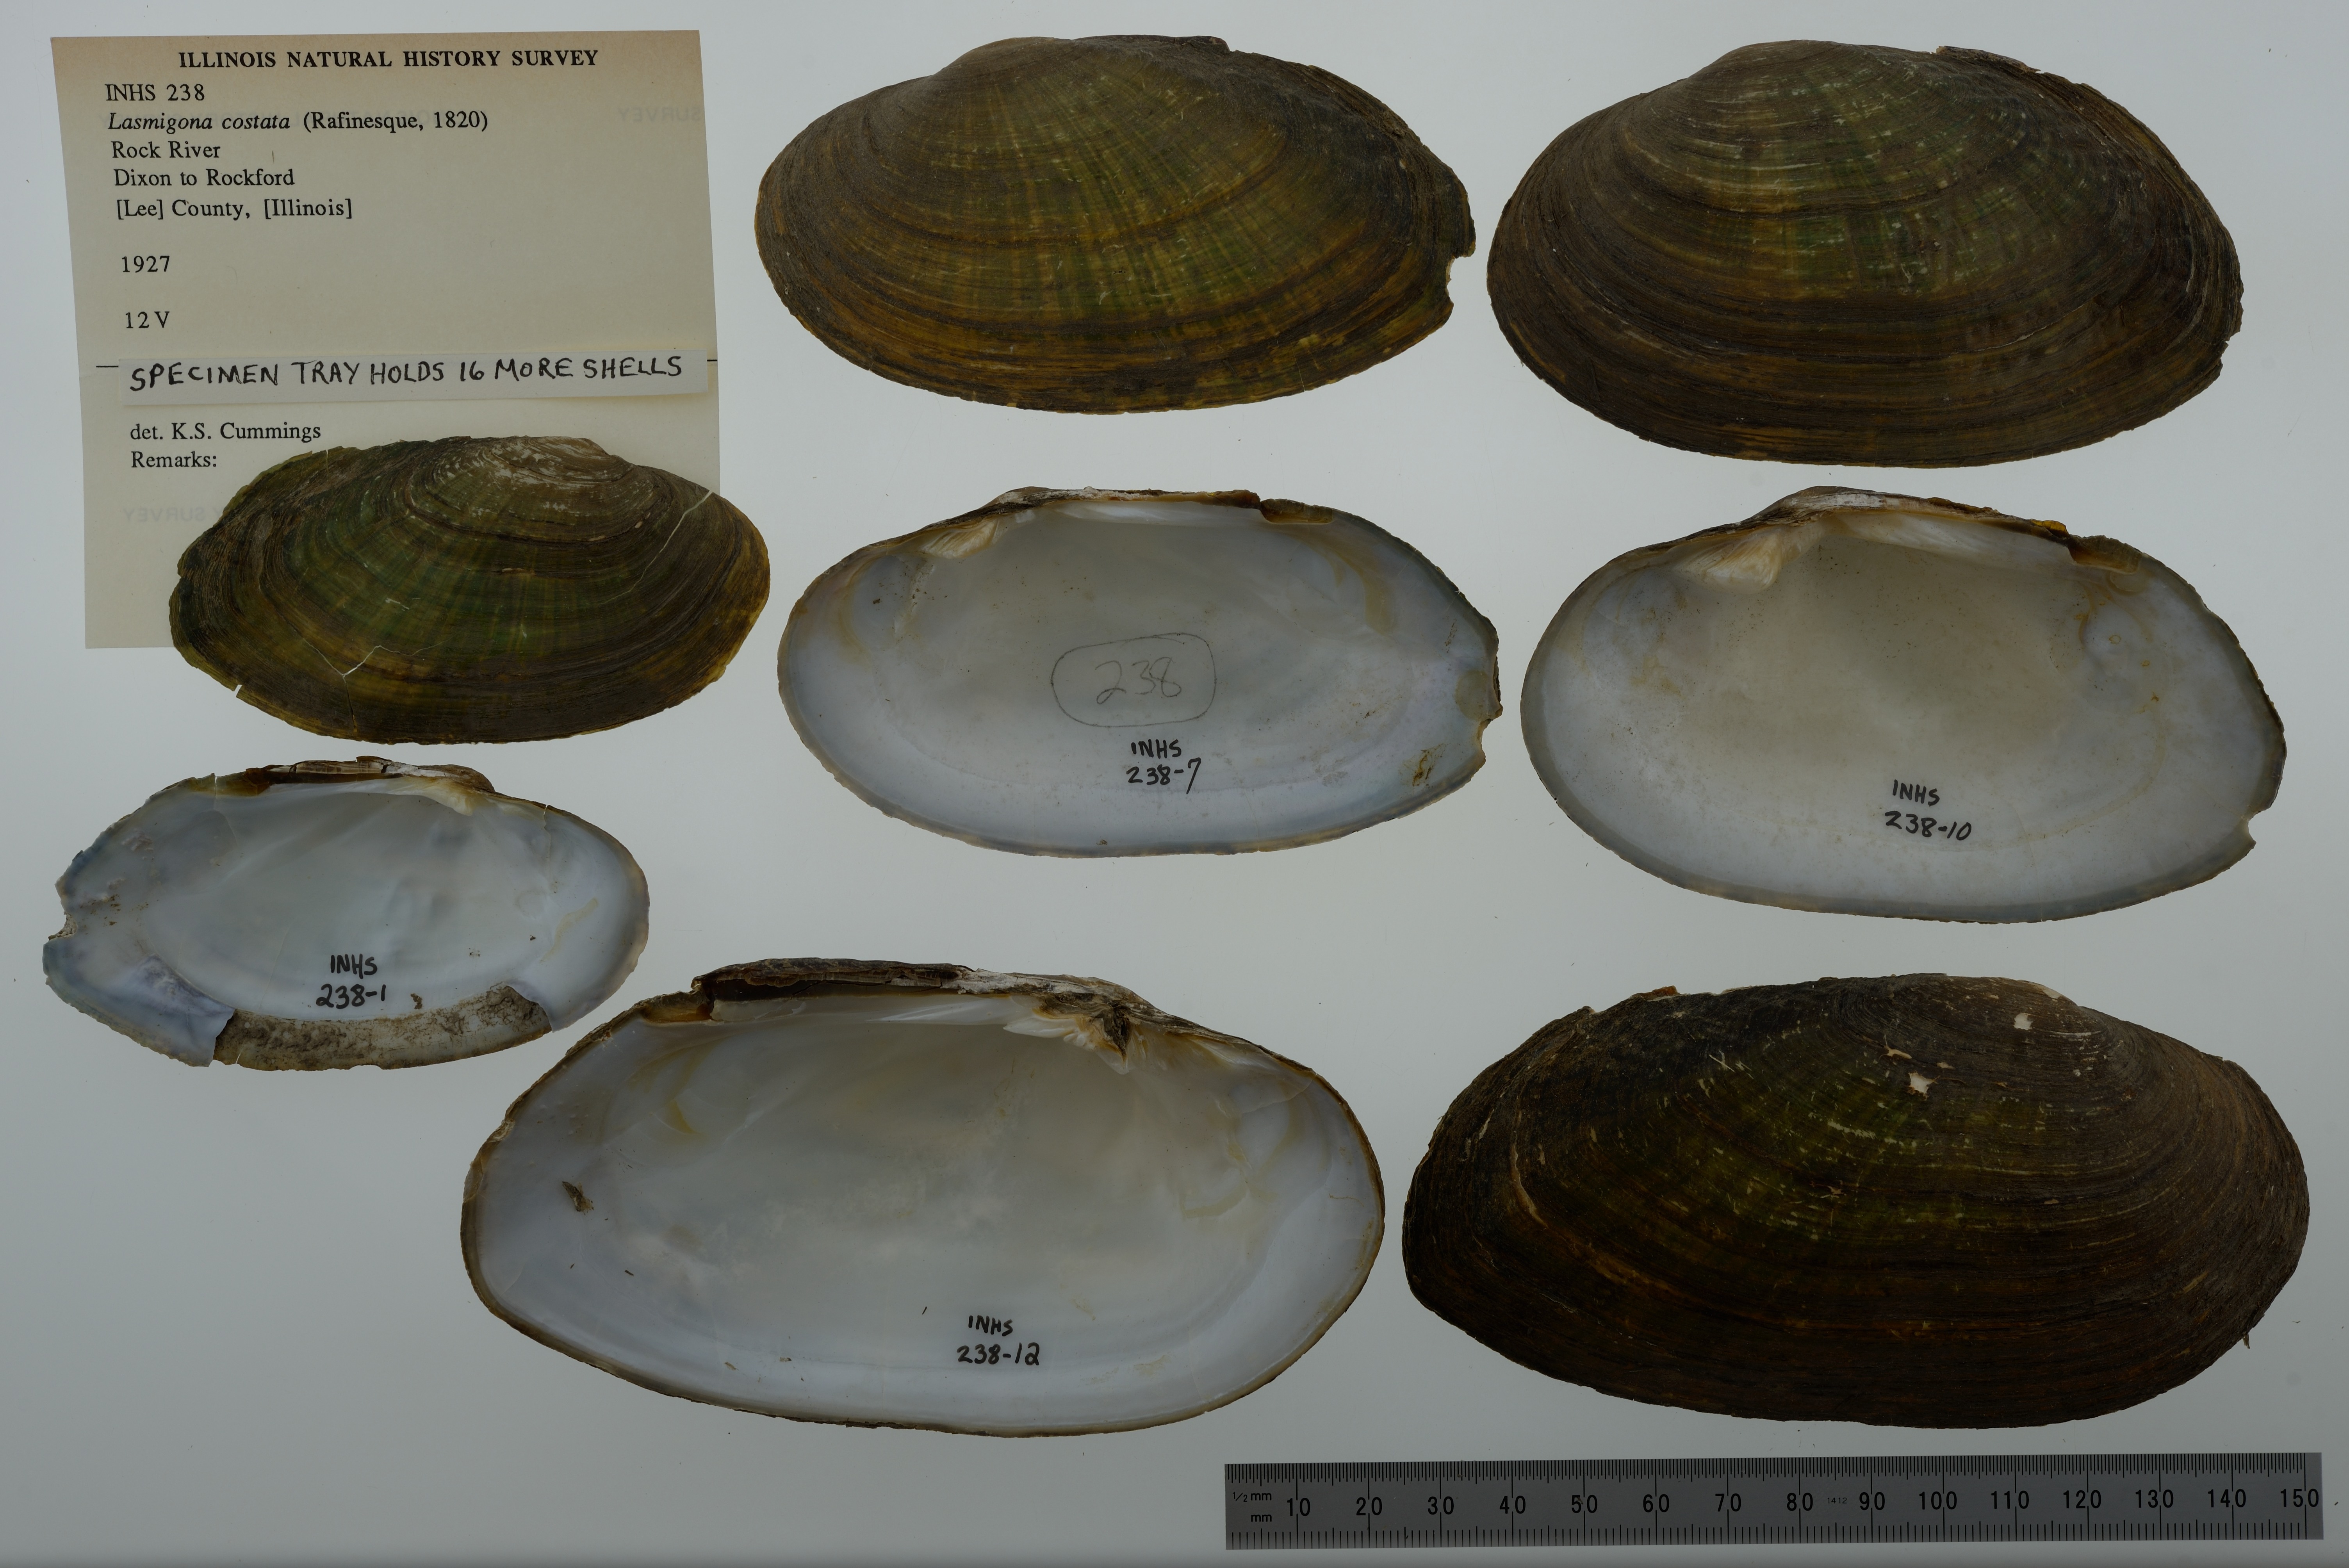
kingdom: Animalia
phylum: Mollusca
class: Bivalvia
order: Unionida
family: Unionidae
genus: Lasmigona
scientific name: Lasmigona costata
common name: Flutedshell
